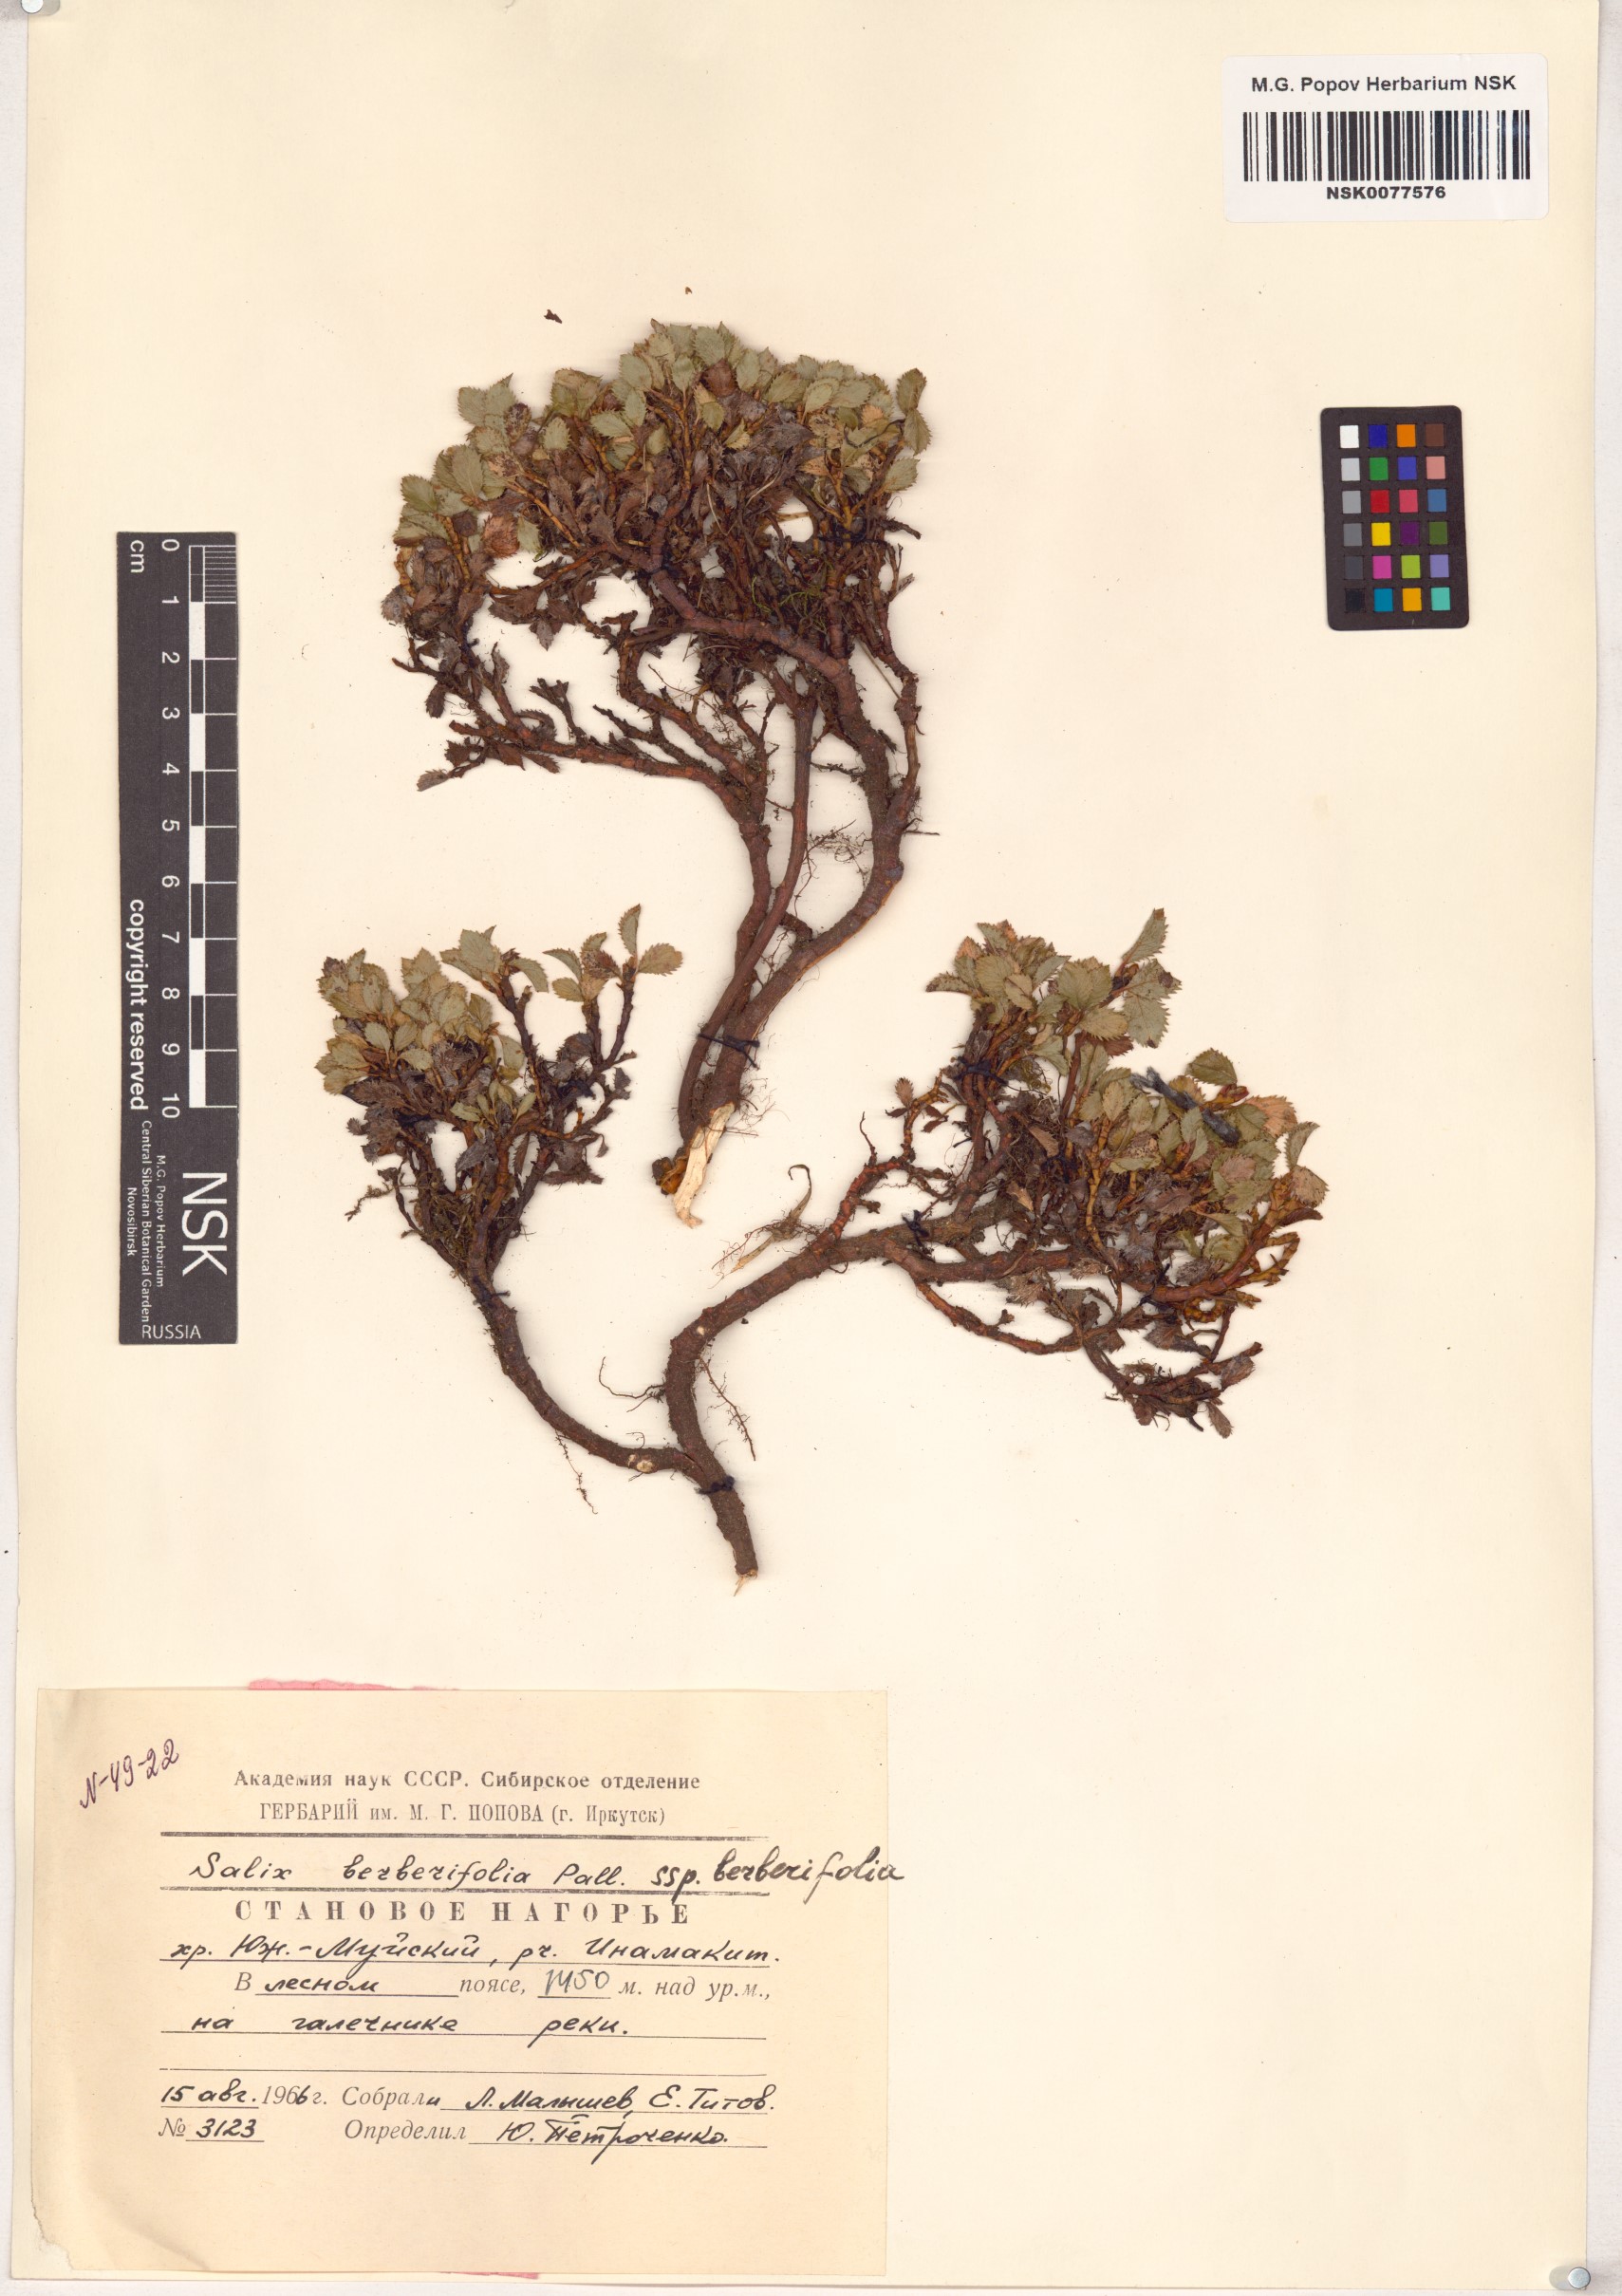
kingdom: Plantae
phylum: Tracheophyta
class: Magnoliopsida
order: Malpighiales
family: Salicaceae
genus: Salix
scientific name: Salix berberifolia
